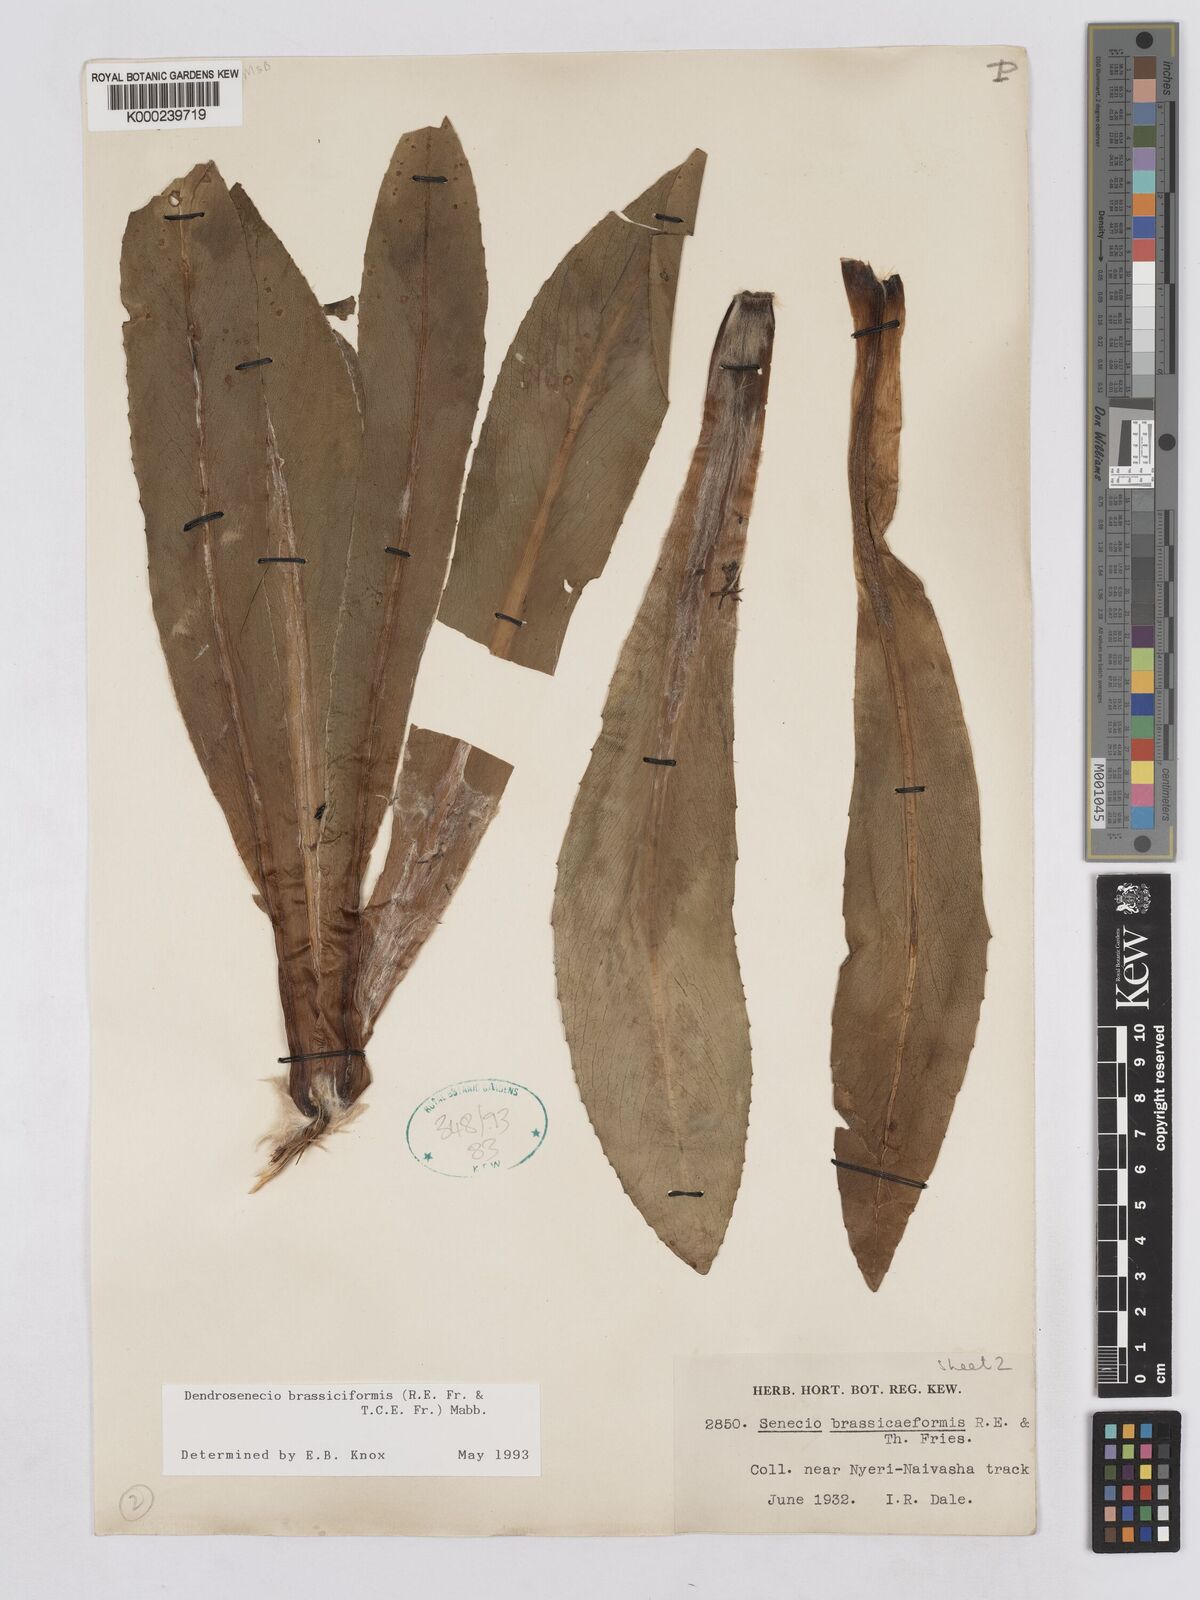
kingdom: Plantae
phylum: Tracheophyta
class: Magnoliopsida
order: Asterales
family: Asteraceae
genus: Dendrosenecio
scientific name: Dendrosenecio brassiciformis
